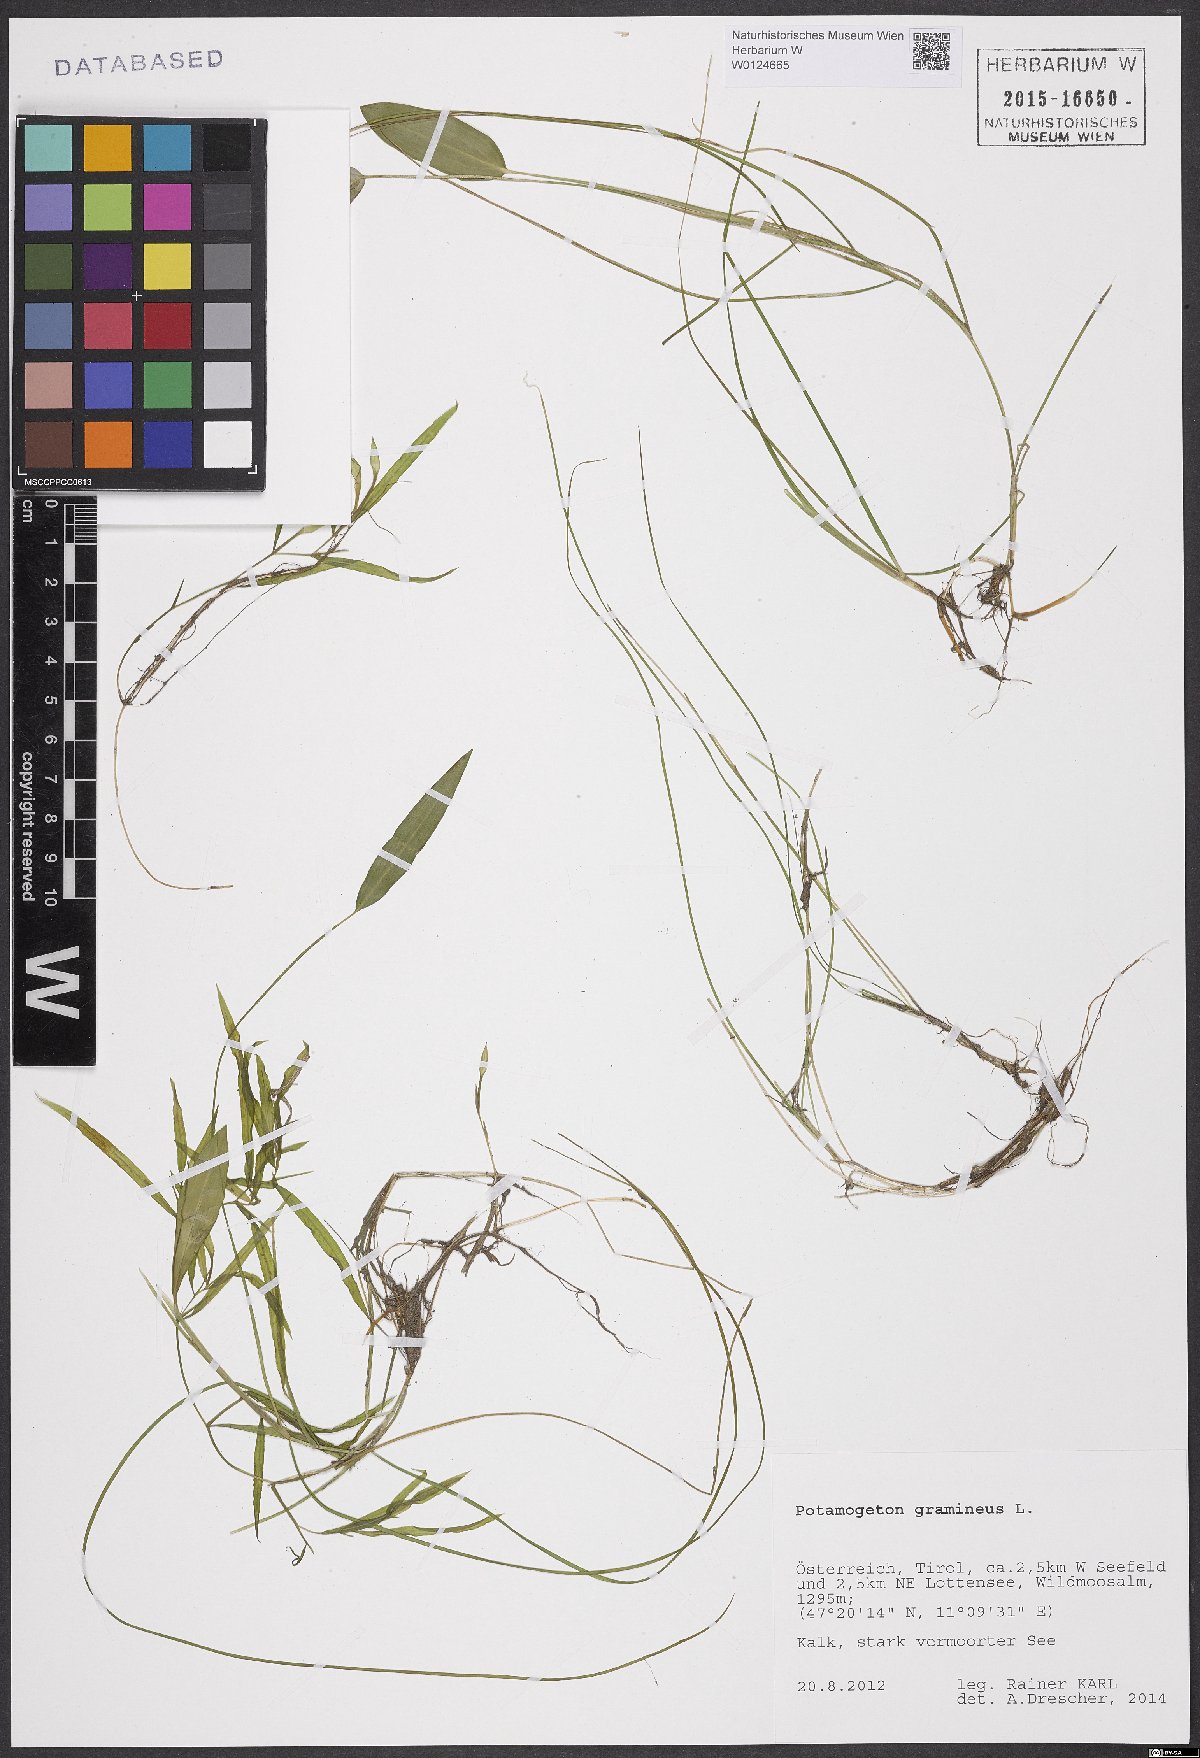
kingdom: Plantae
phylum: Tracheophyta
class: Liliopsida
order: Alismatales
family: Potamogetonaceae
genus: Potamogeton
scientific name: Potamogeton gramineus
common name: Various-leaved pondweed
